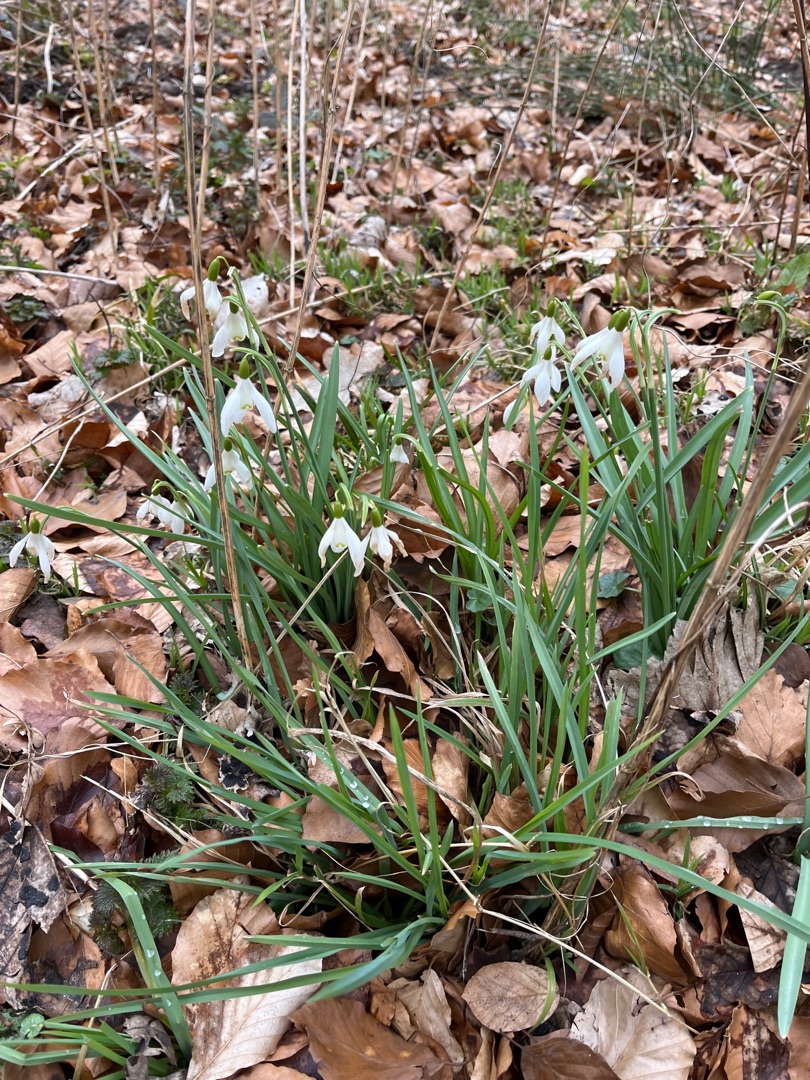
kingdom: Plantae
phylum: Tracheophyta
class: Liliopsida
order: Asparagales
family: Amaryllidaceae
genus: Galanthus
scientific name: Galanthus nivalis
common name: Vintergæk
